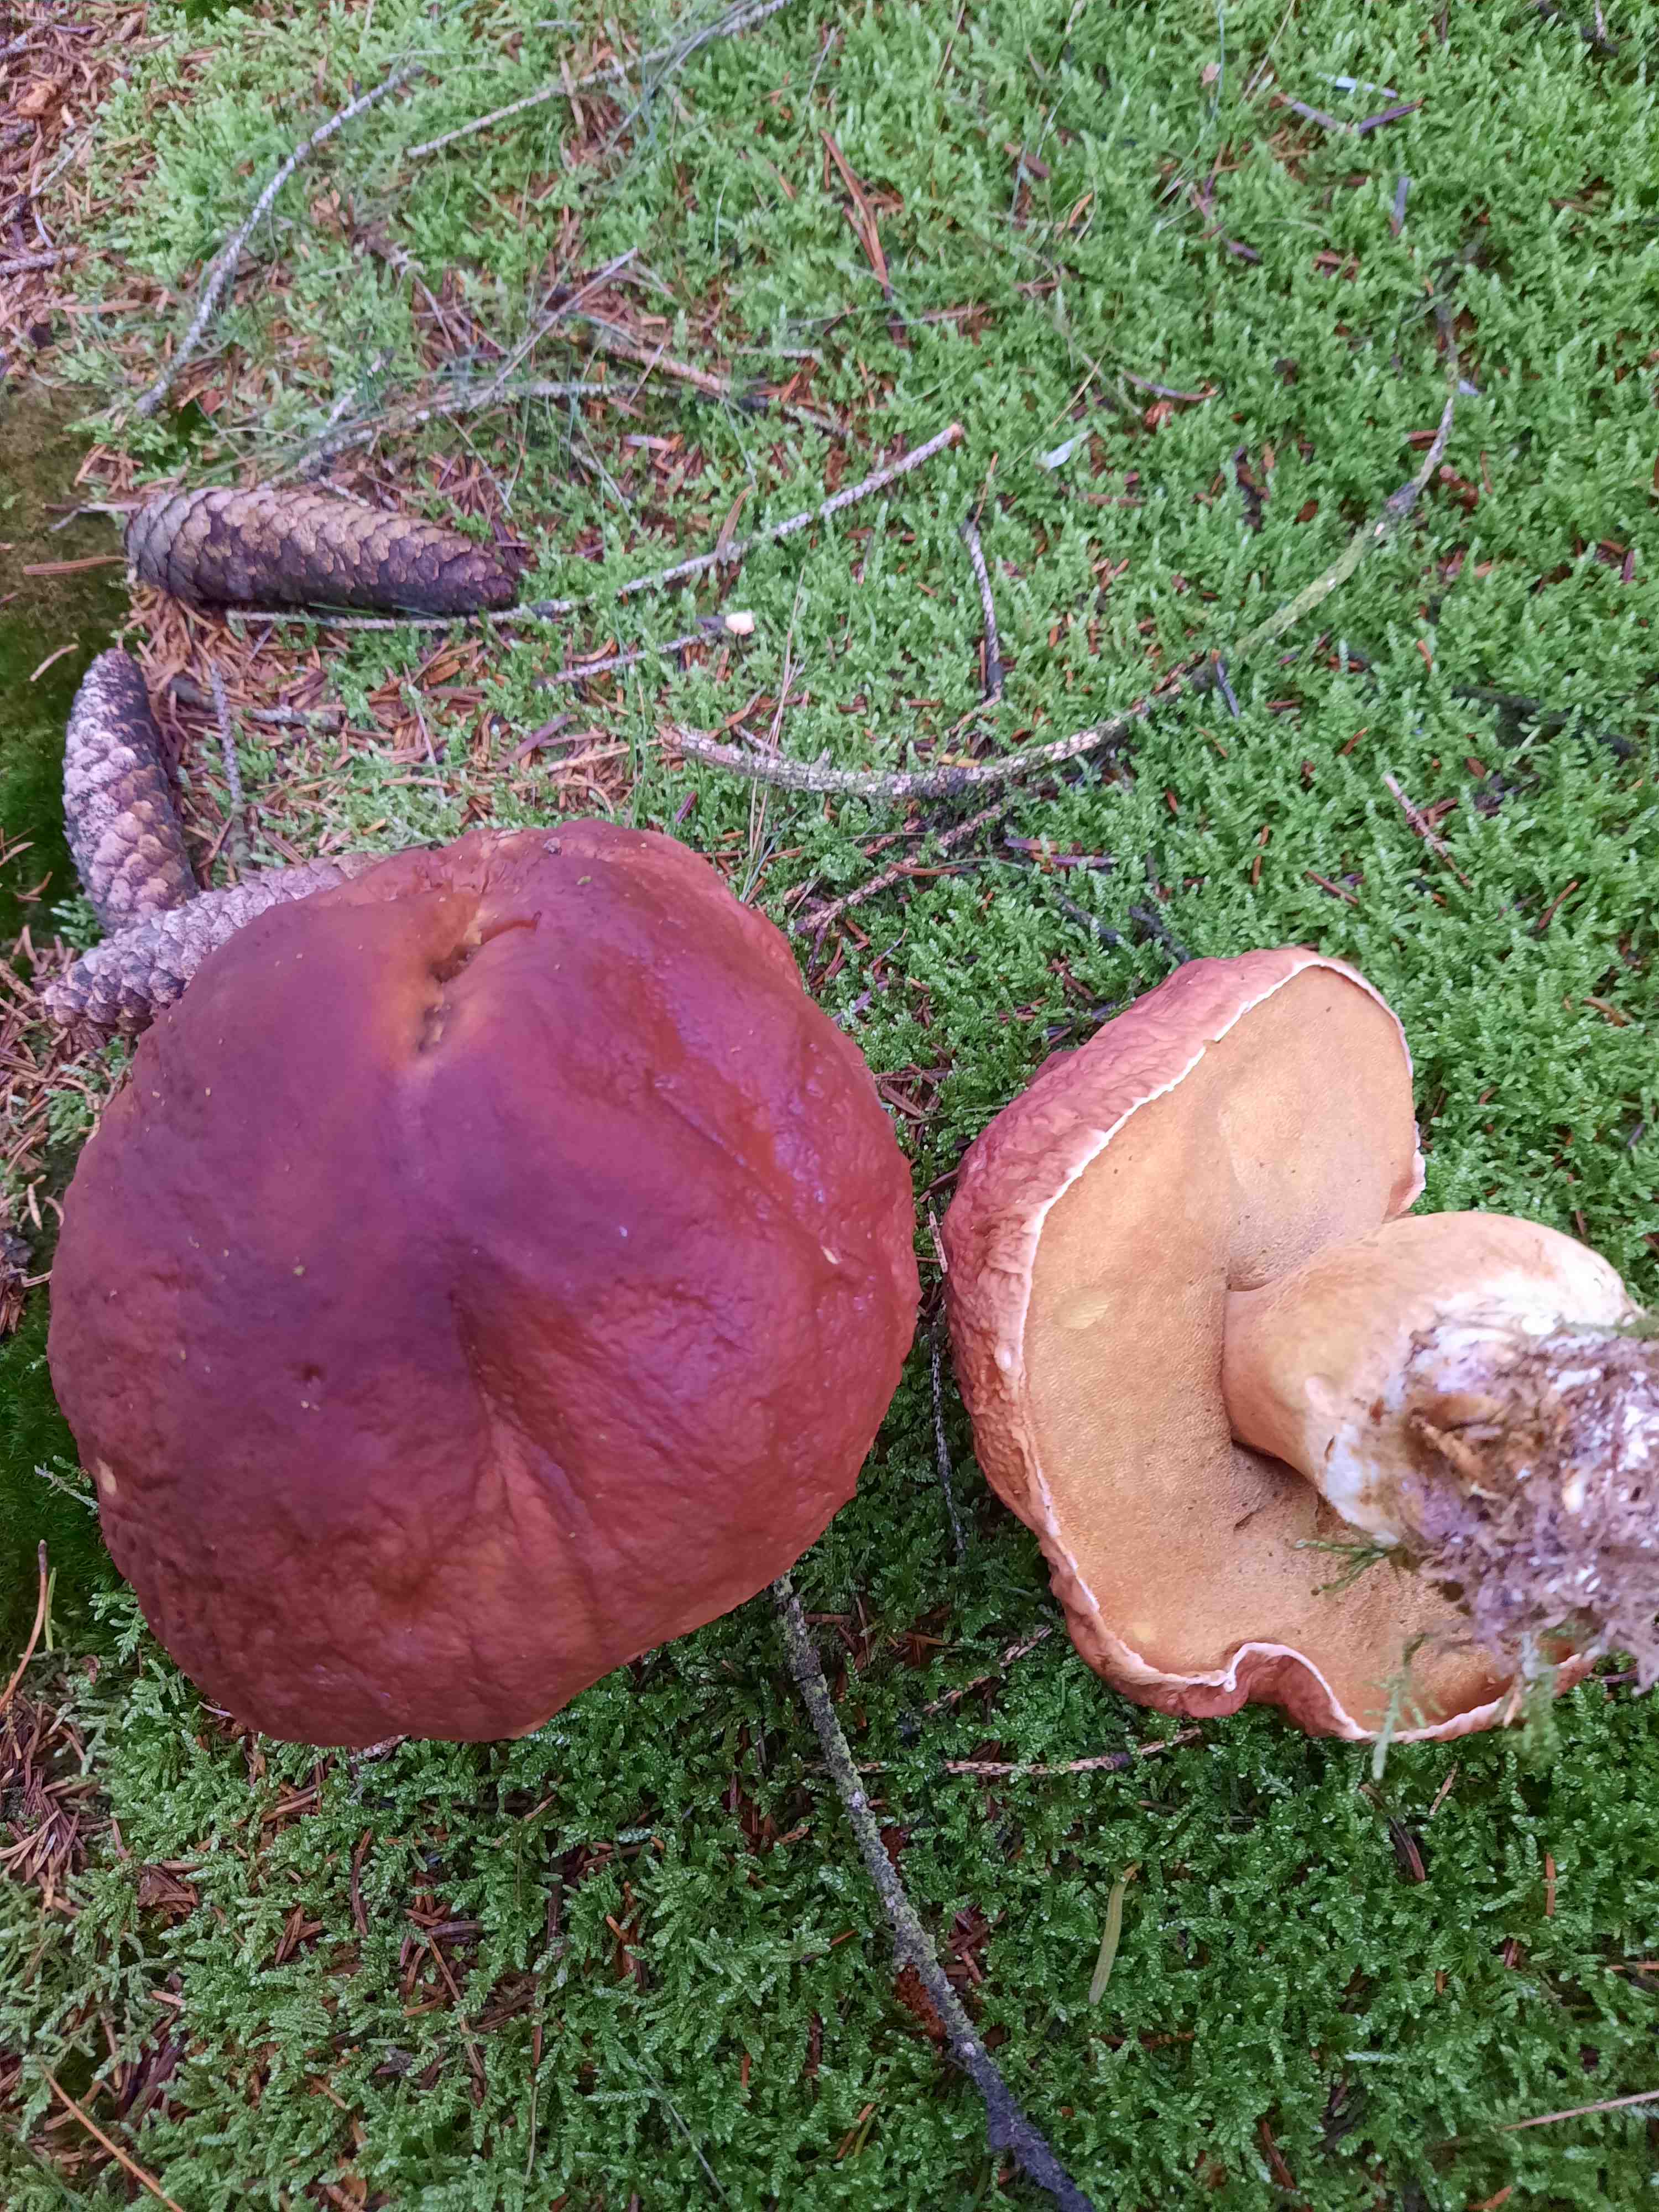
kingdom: Fungi
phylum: Basidiomycota
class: Agaricomycetes
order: Boletales
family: Boletaceae
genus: Boletus
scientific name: Boletus pinophilus
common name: rødbrun rørhat
